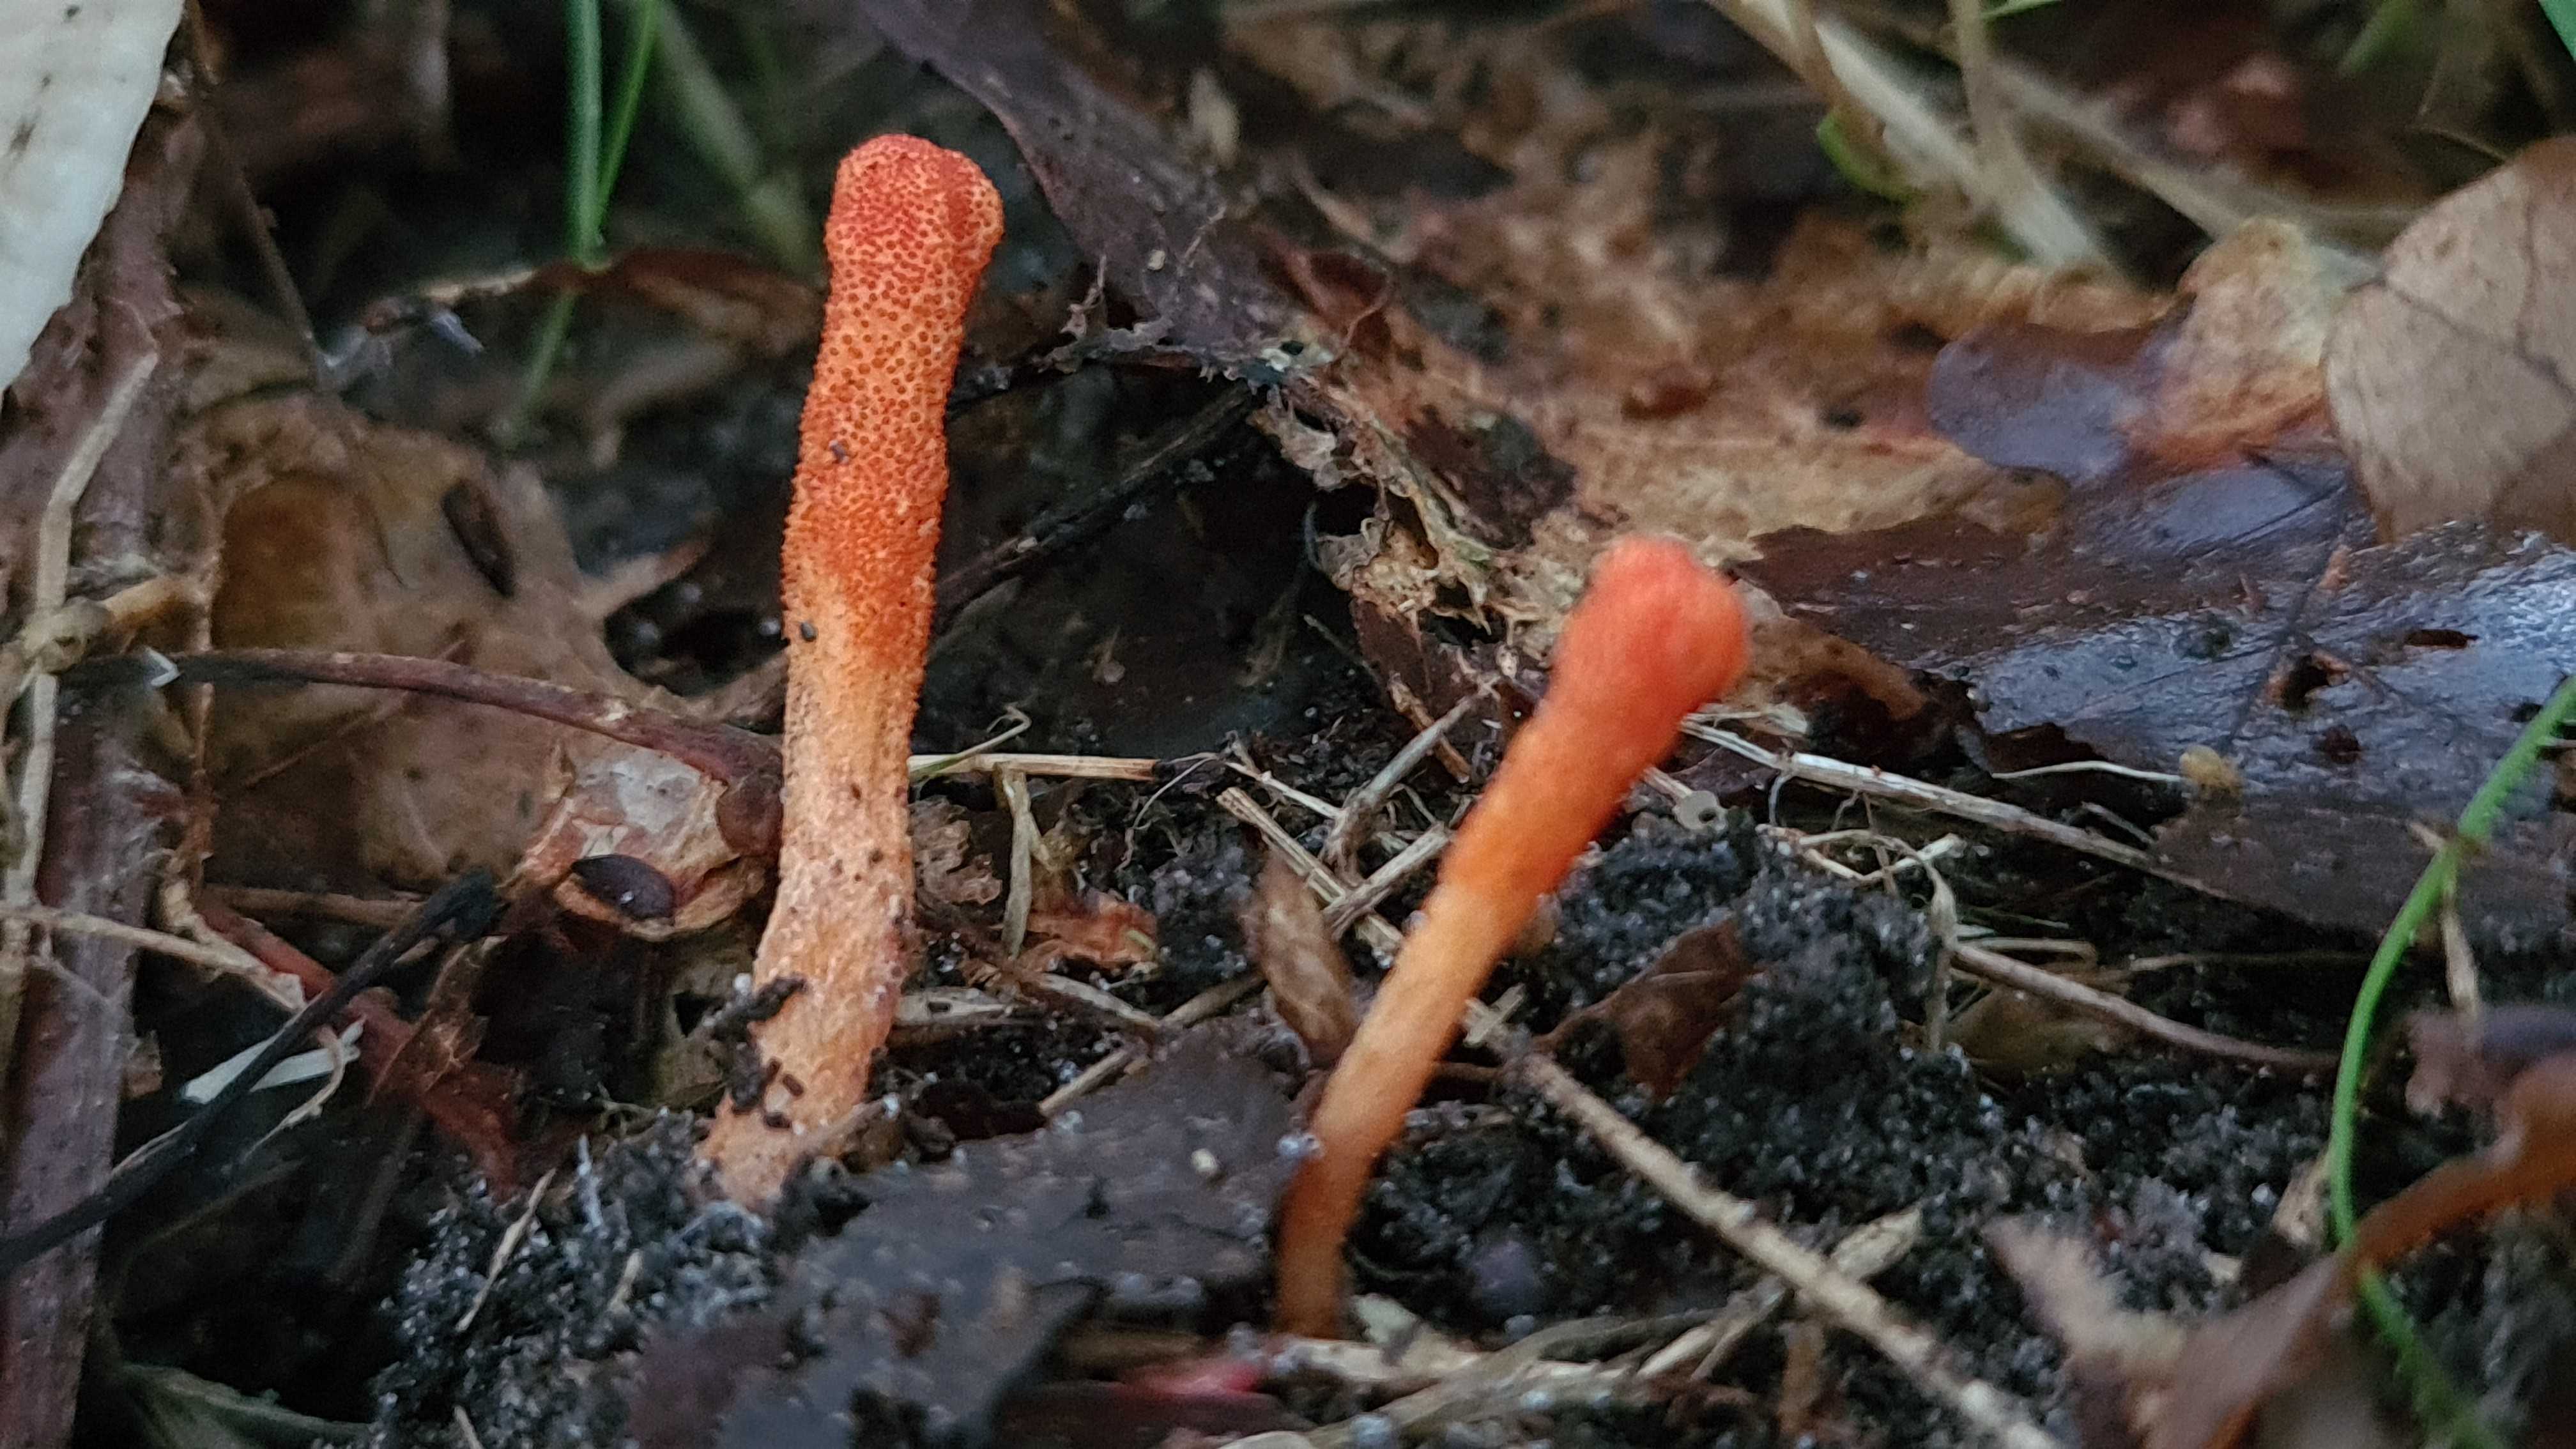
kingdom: Fungi
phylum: Ascomycota
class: Sordariomycetes
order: Hypocreales
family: Cordycipitaceae
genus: Cordyceps
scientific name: Cordyceps militaris
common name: puppe-snyltekølle
